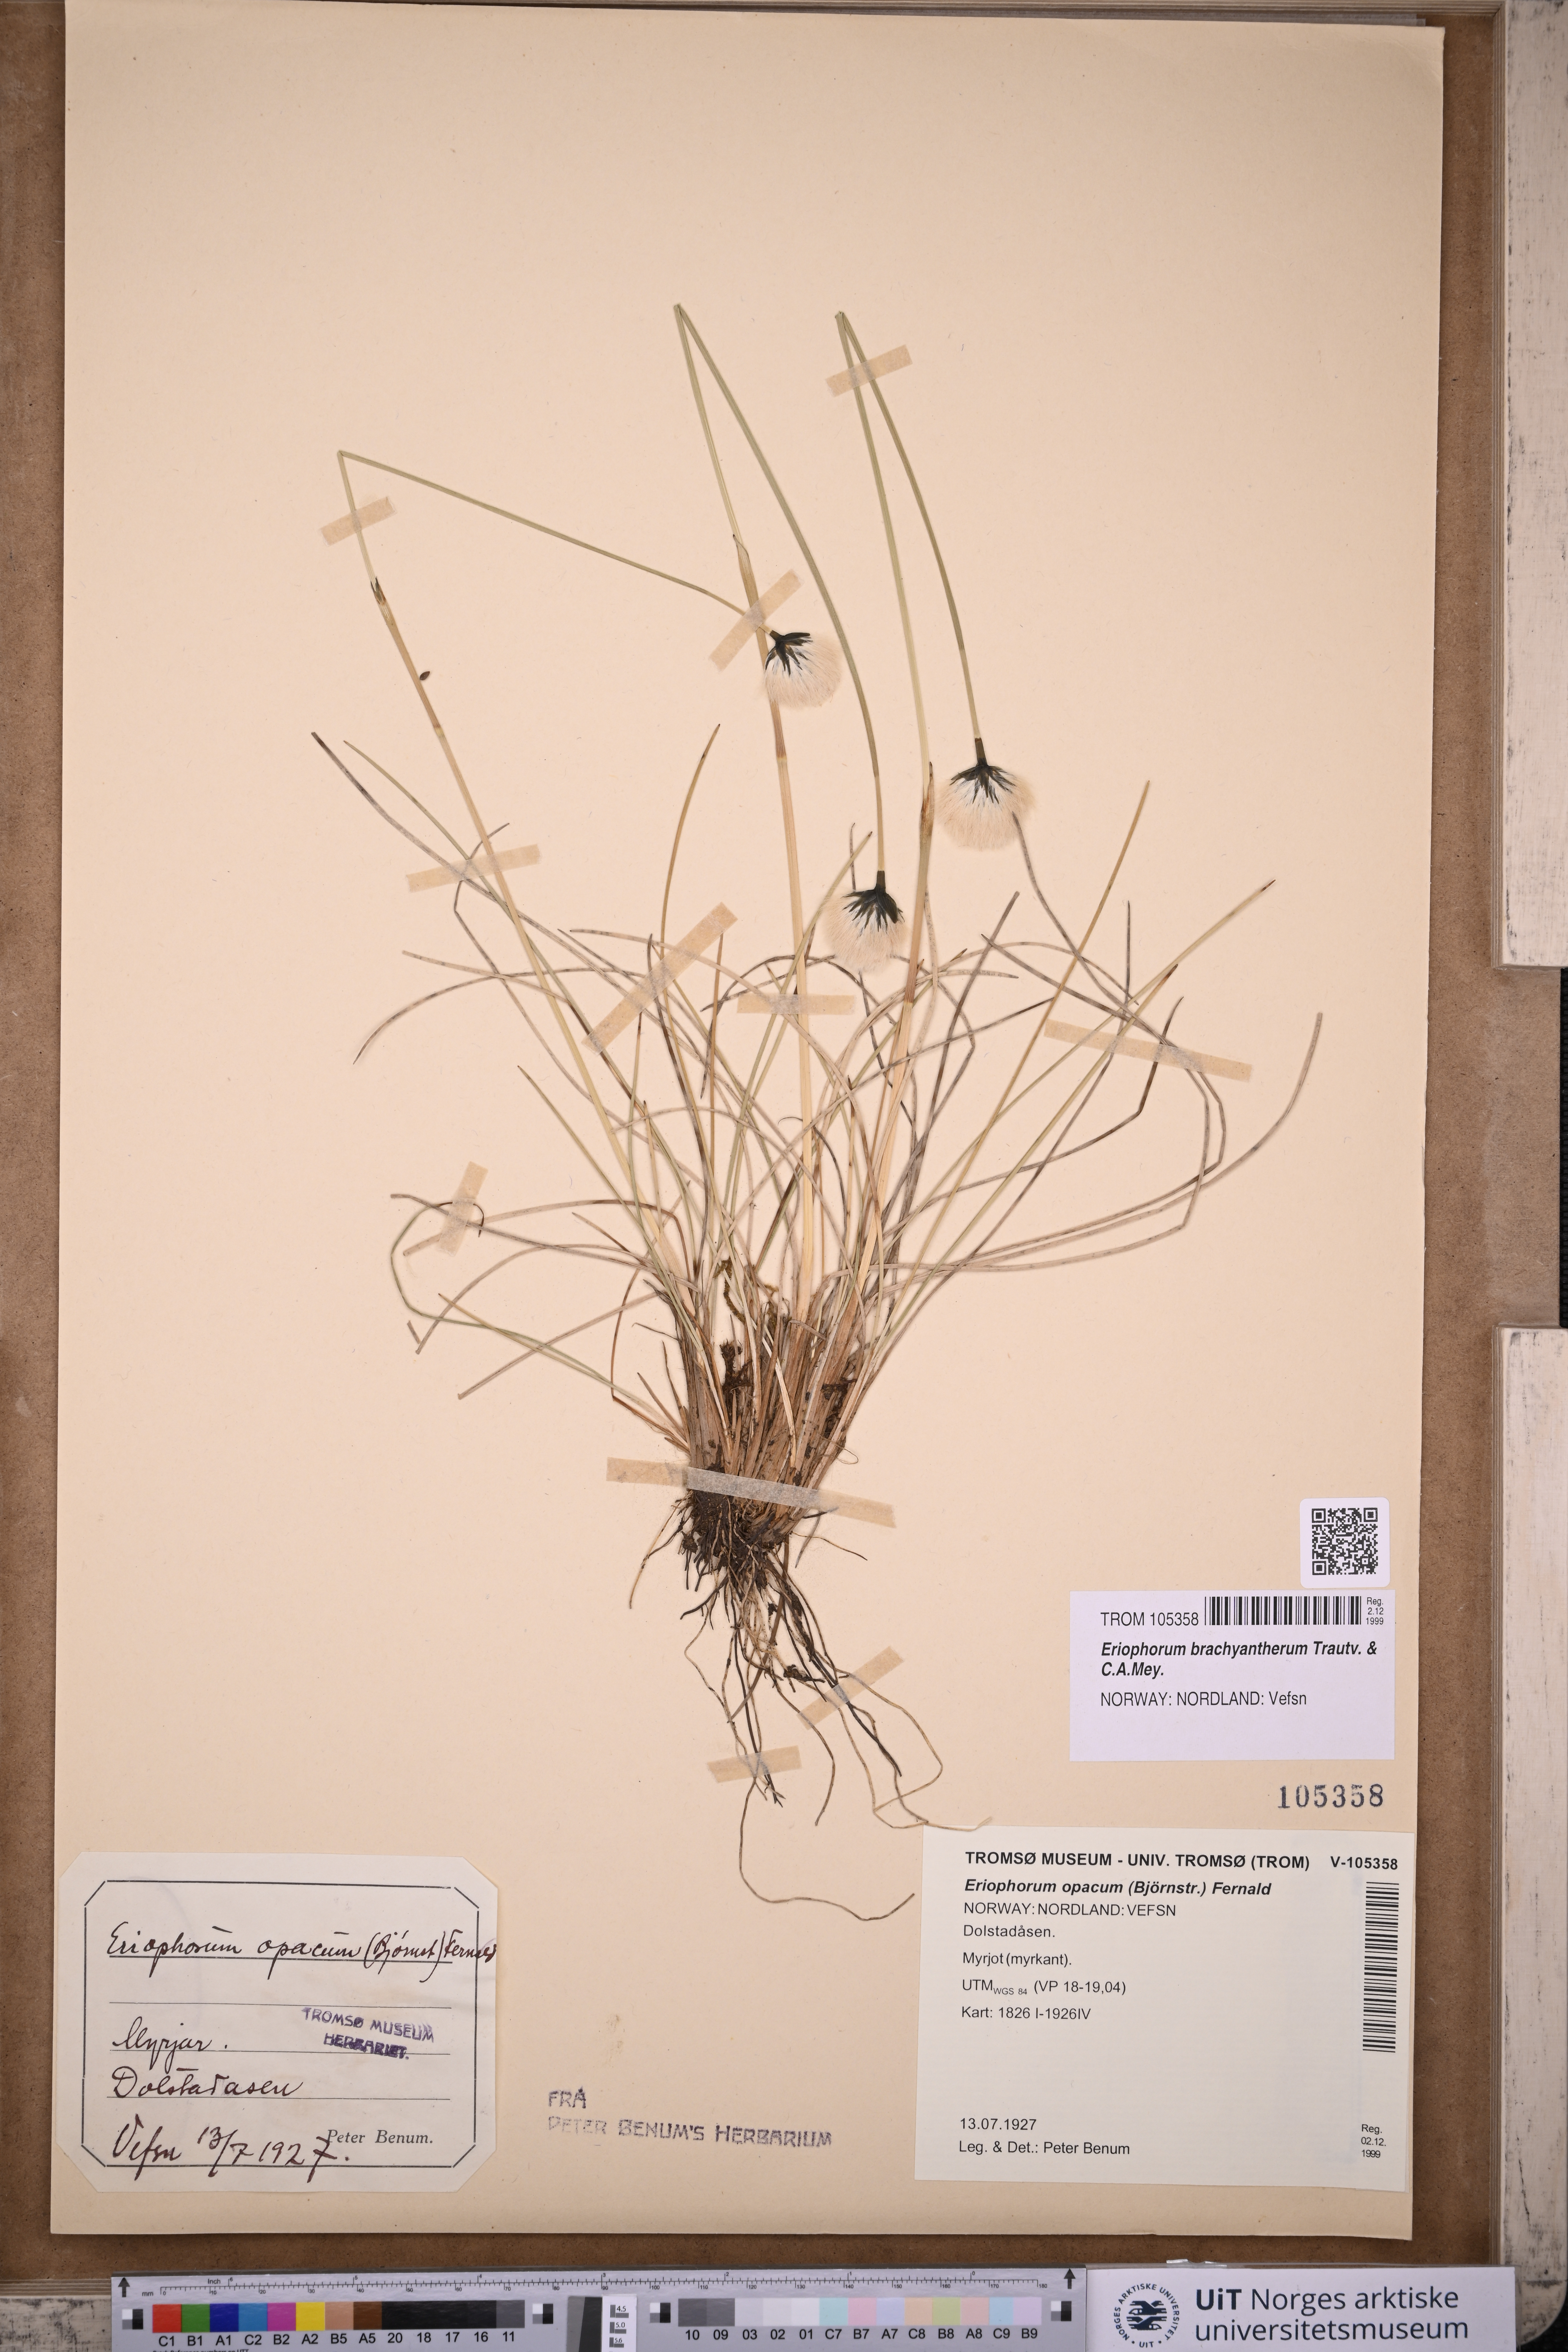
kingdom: Plantae
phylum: Tracheophyta
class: Liliopsida
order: Poales
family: Cyperaceae
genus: Eriophorum
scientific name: Eriophorum brachyantherum
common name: Closed-sheathed cottongrass
